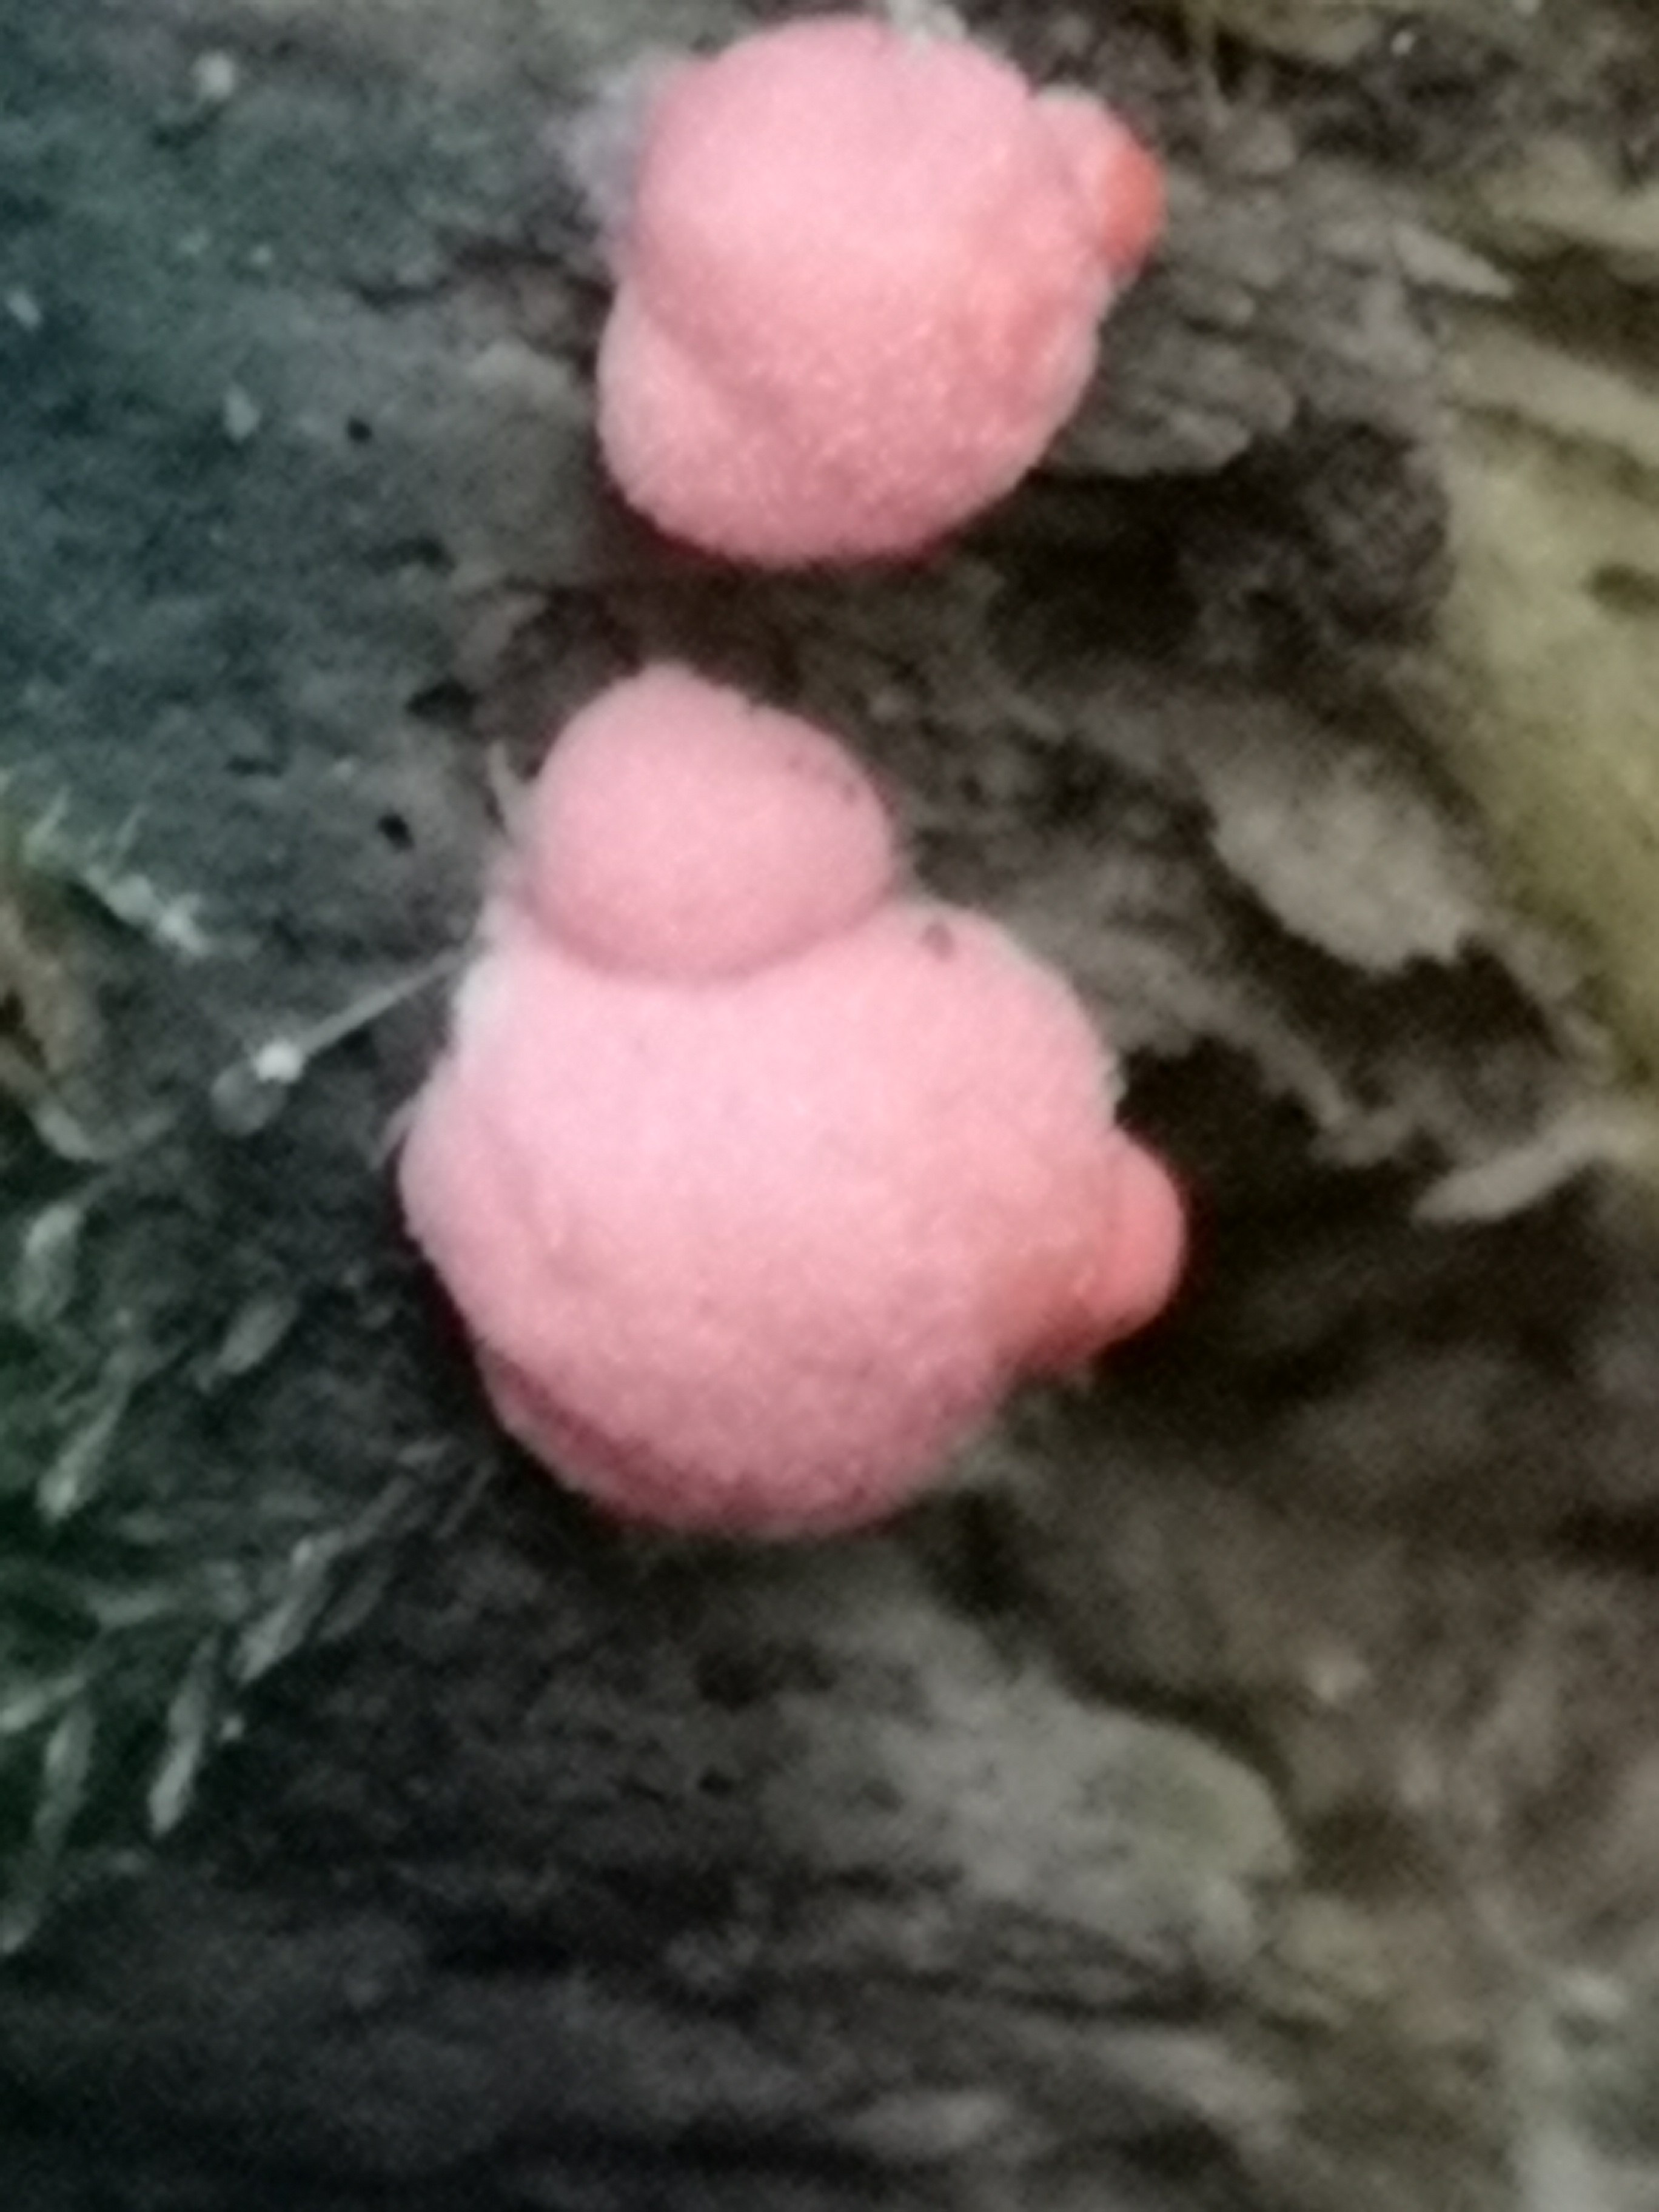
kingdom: Protozoa
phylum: Mycetozoa
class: Myxomycetes
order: Cribrariales
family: Tubiferaceae
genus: Lycogala
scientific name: Lycogala epidendrum
